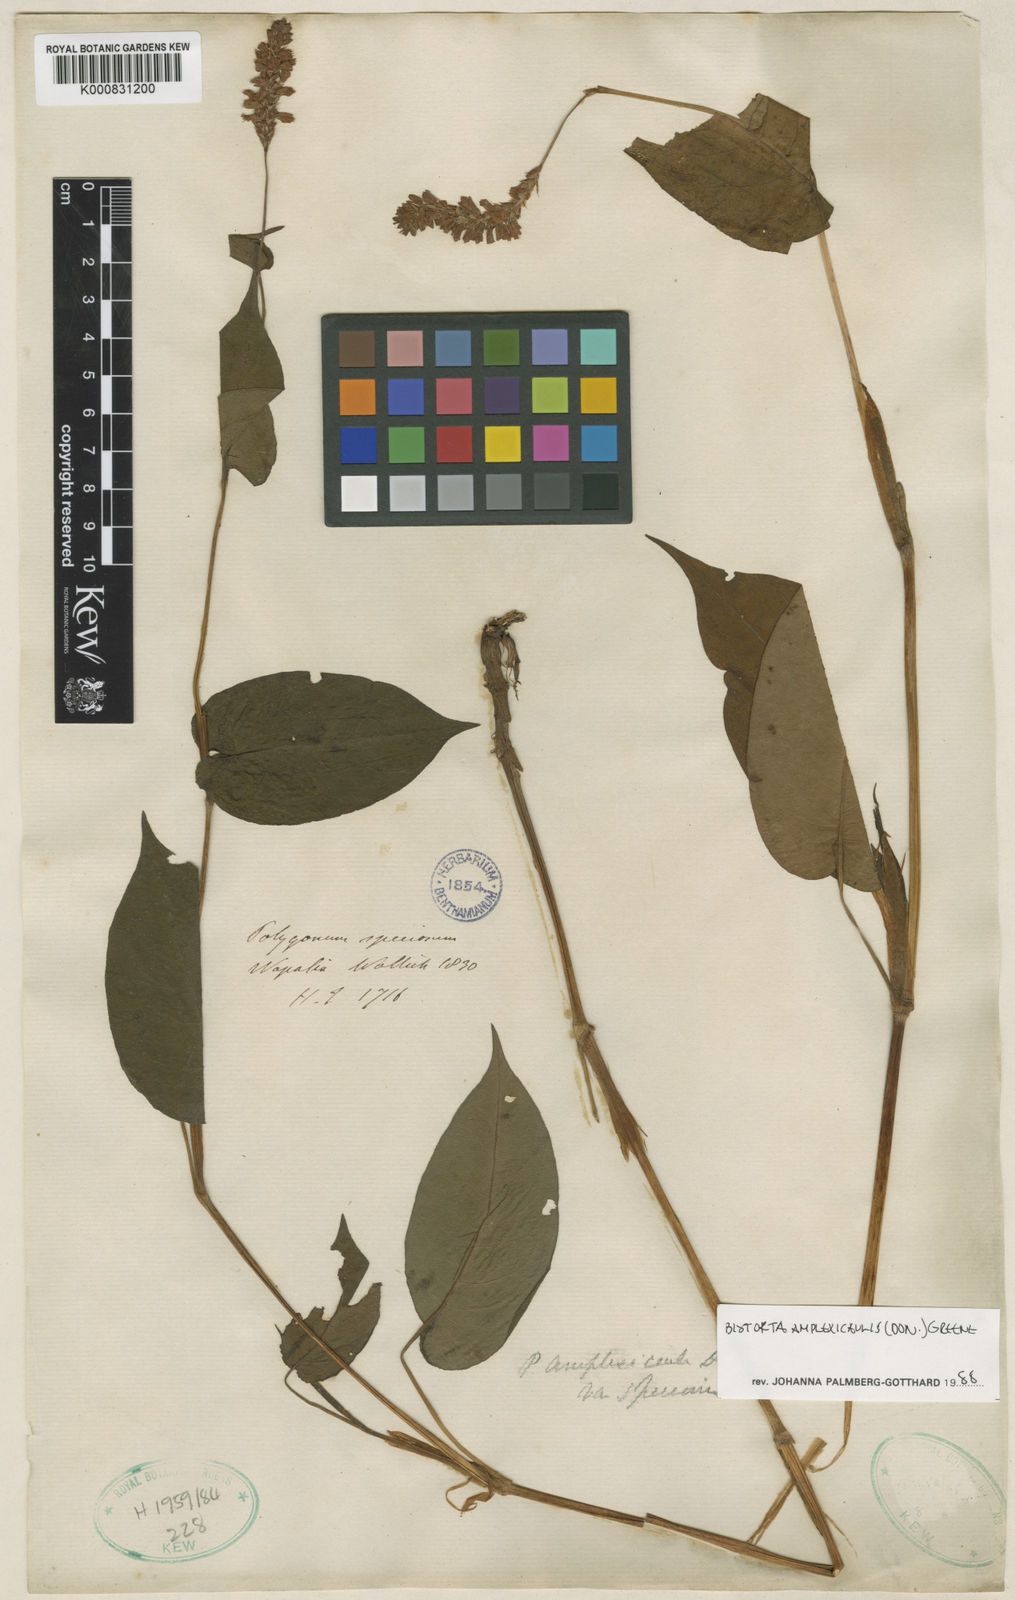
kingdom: Plantae
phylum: Tracheophyta
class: Magnoliopsida
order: Caryophyllales
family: Polygonaceae
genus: Bistorta
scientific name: Bistorta amplexicaulis
